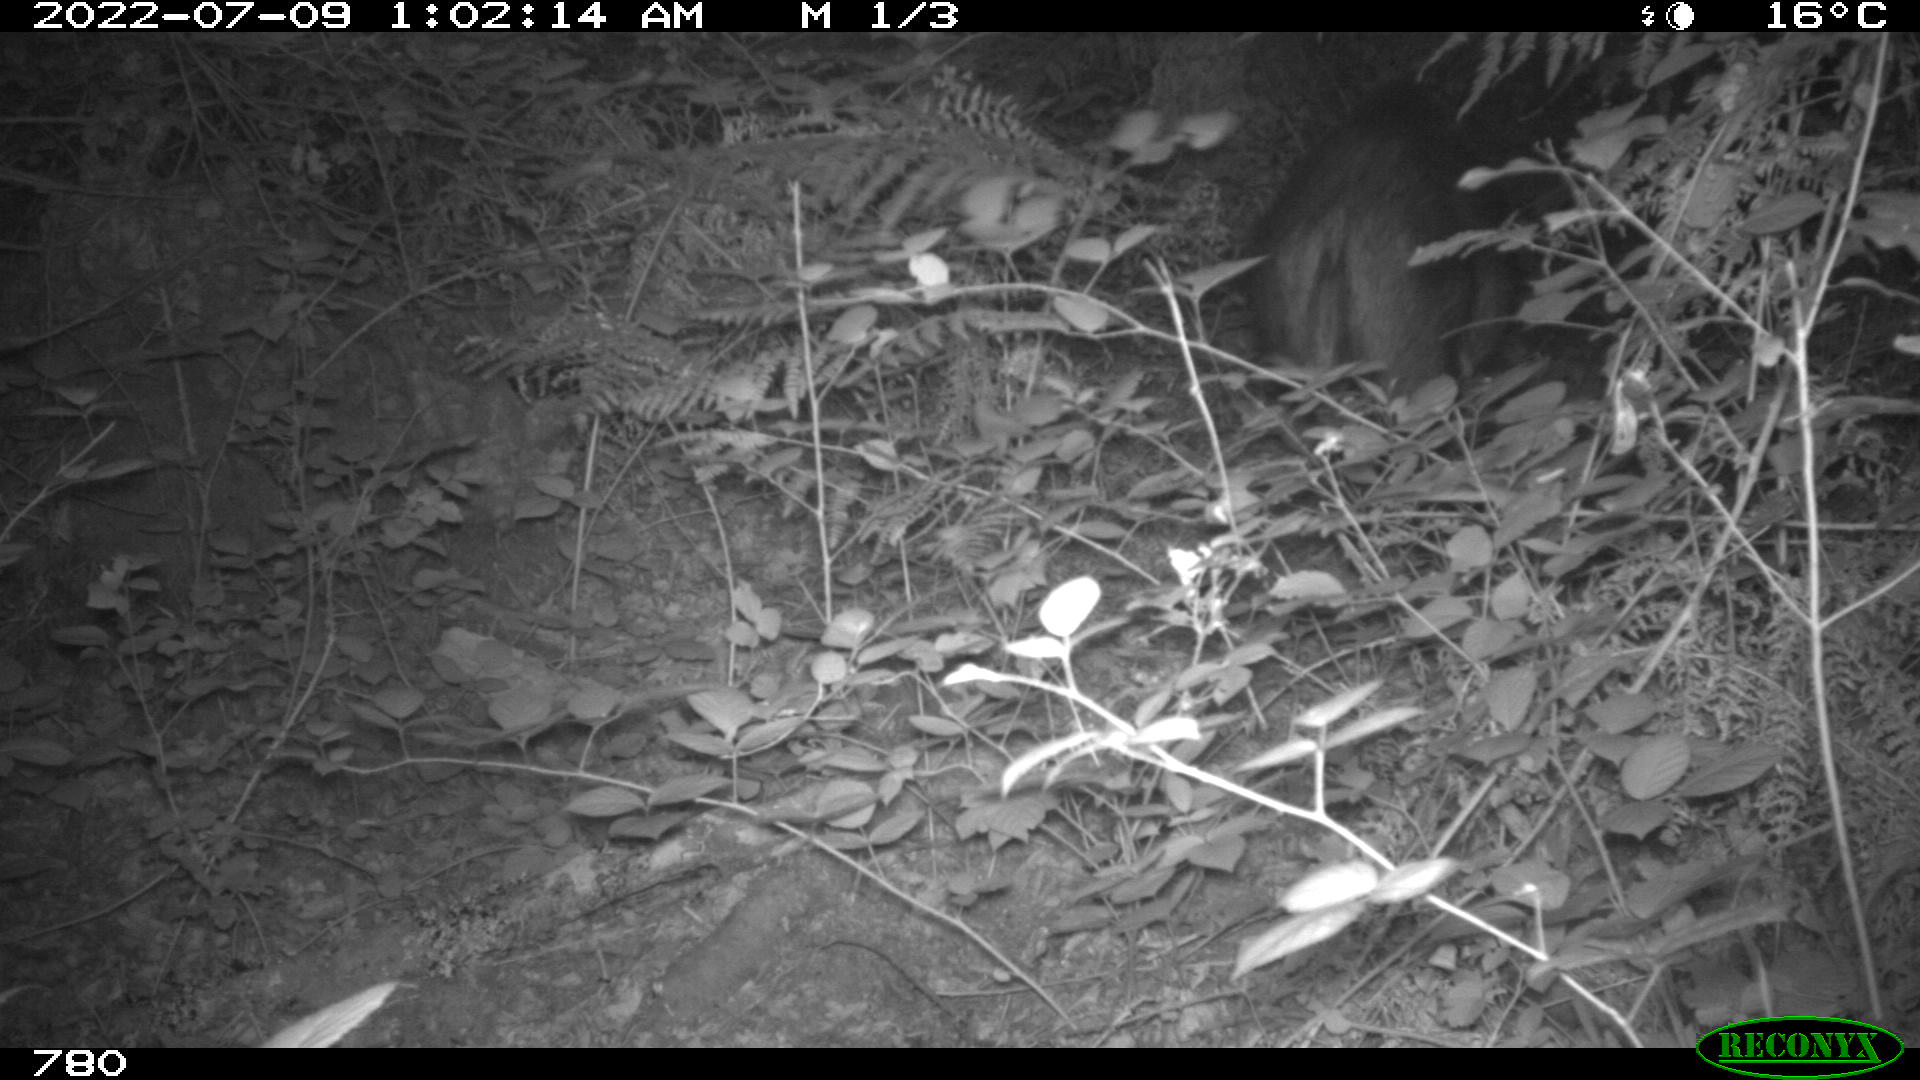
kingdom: Animalia
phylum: Chordata
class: Mammalia
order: Artiodactyla
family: Suidae
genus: Sus
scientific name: Sus scrofa
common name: Wild boar
